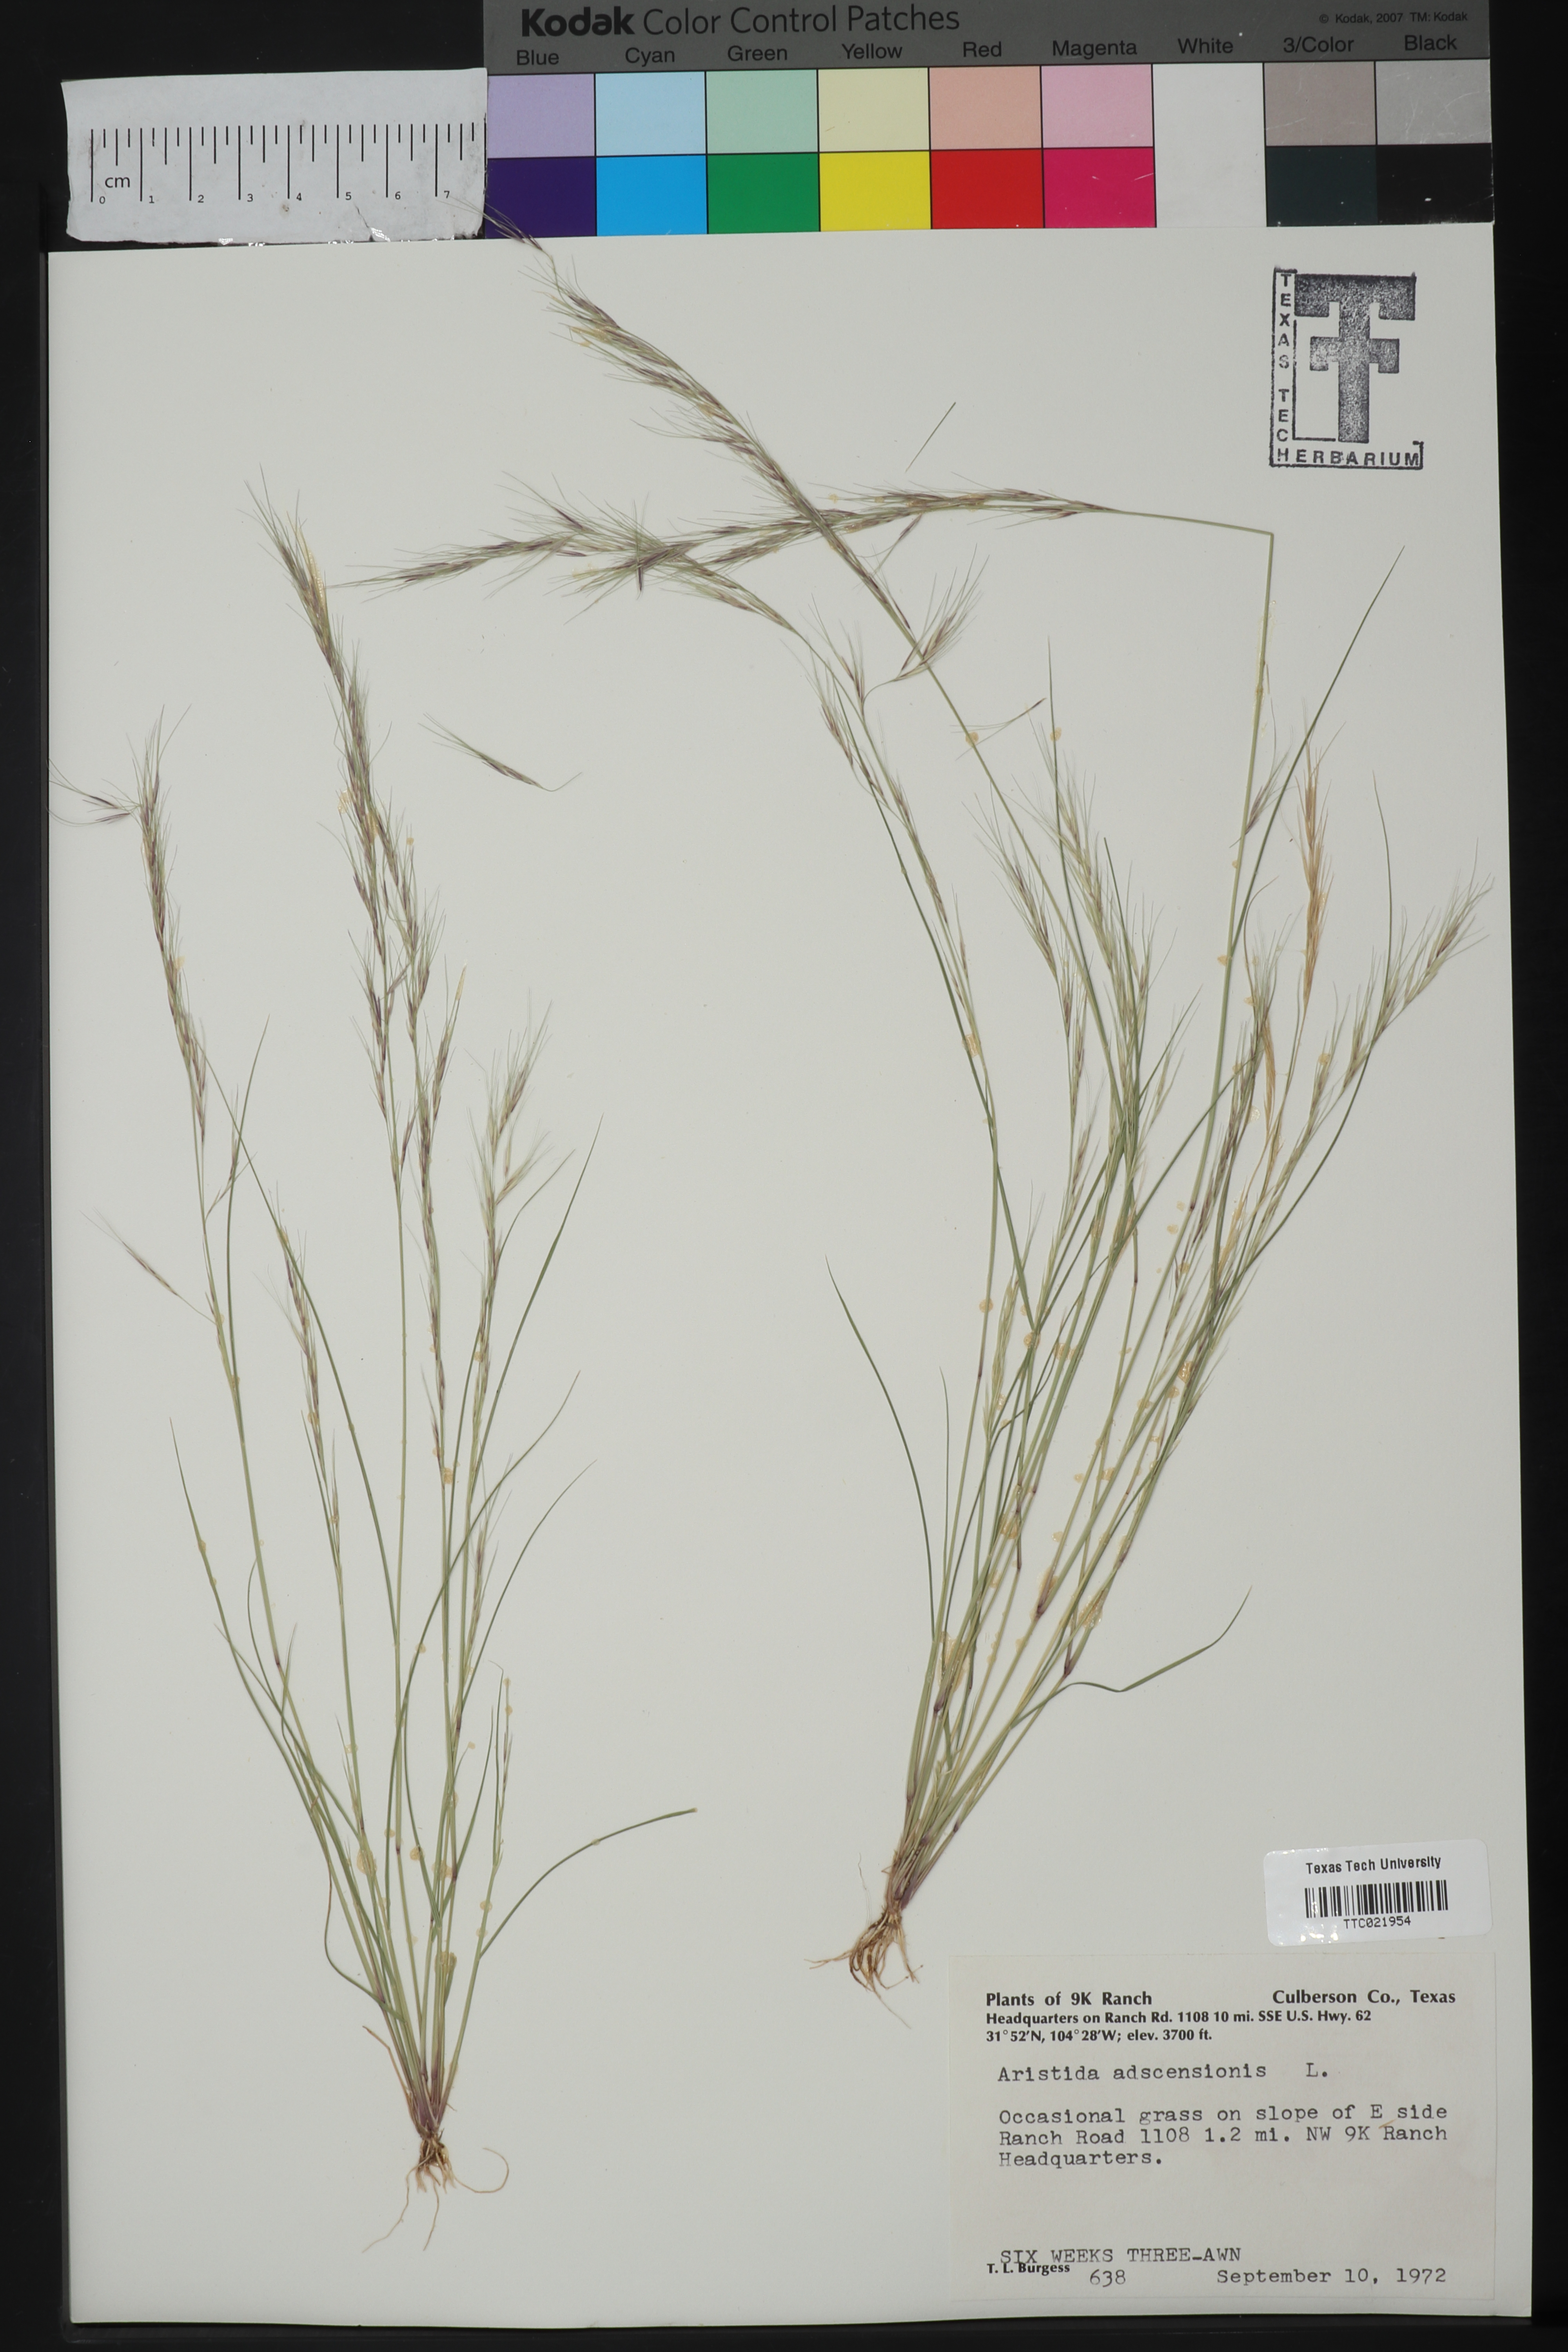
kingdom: Plantae
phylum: Tracheophyta
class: Liliopsida
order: Poales
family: Poaceae
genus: Aristida
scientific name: Aristida adscensionis
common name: Sixweeks threeawn
